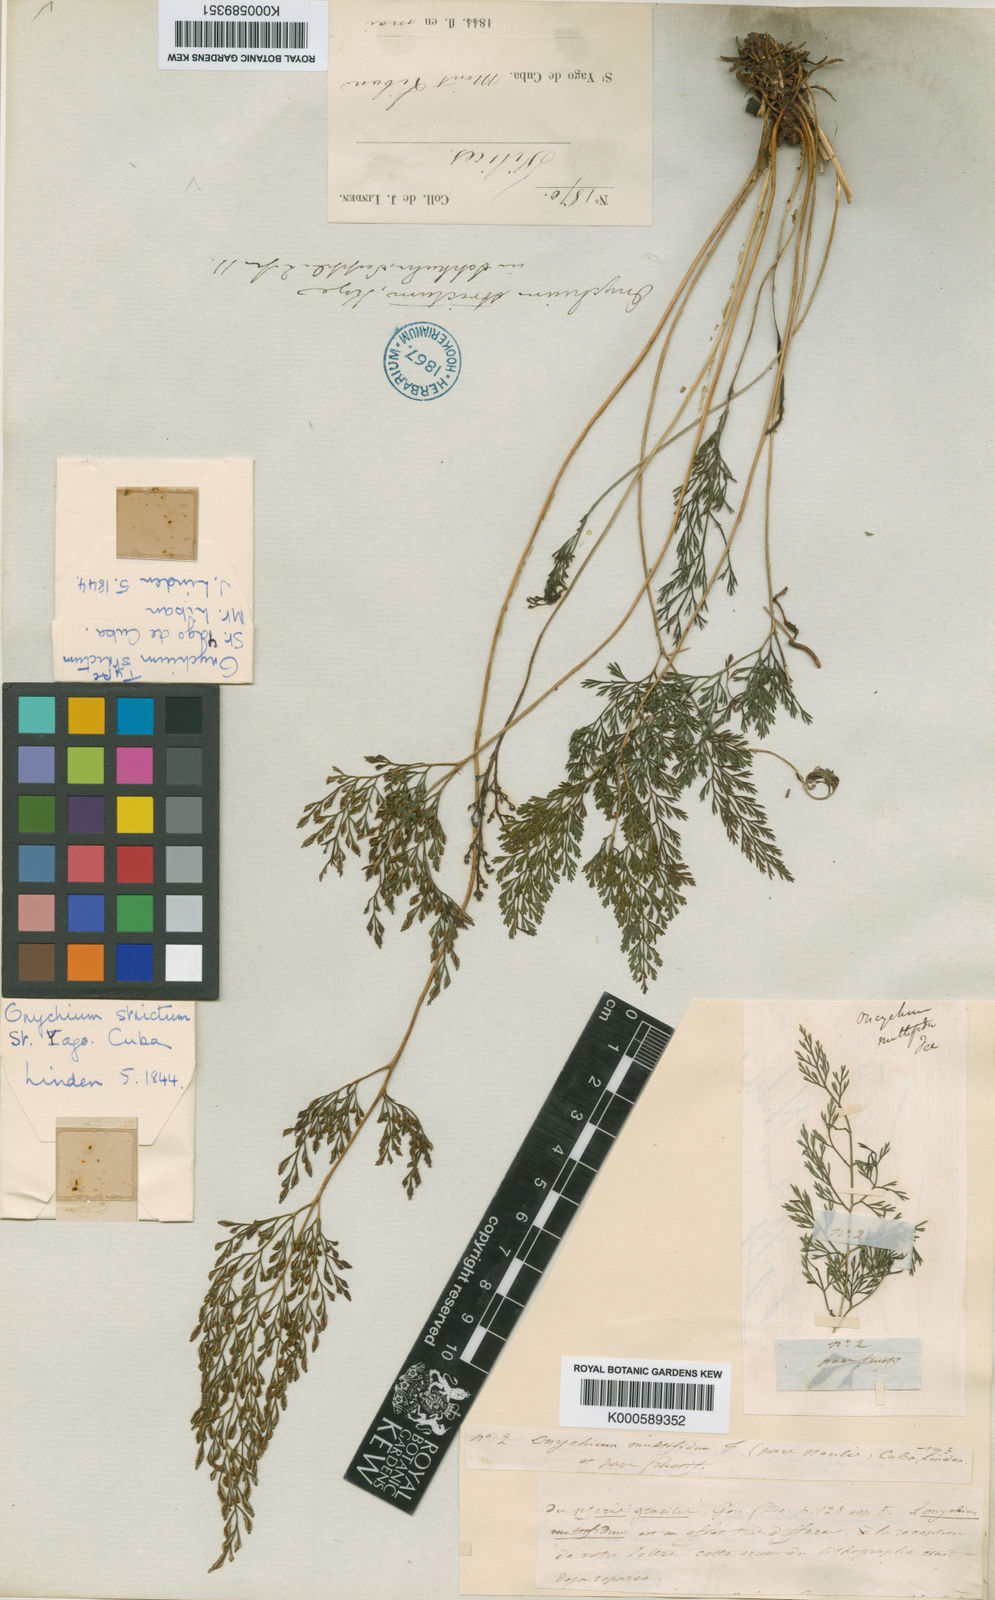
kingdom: Plantae
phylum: Tracheophyta
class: Polypodiopsida
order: Polypodiales
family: Pteridaceae
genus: Pteris
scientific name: Pteris hexagona
